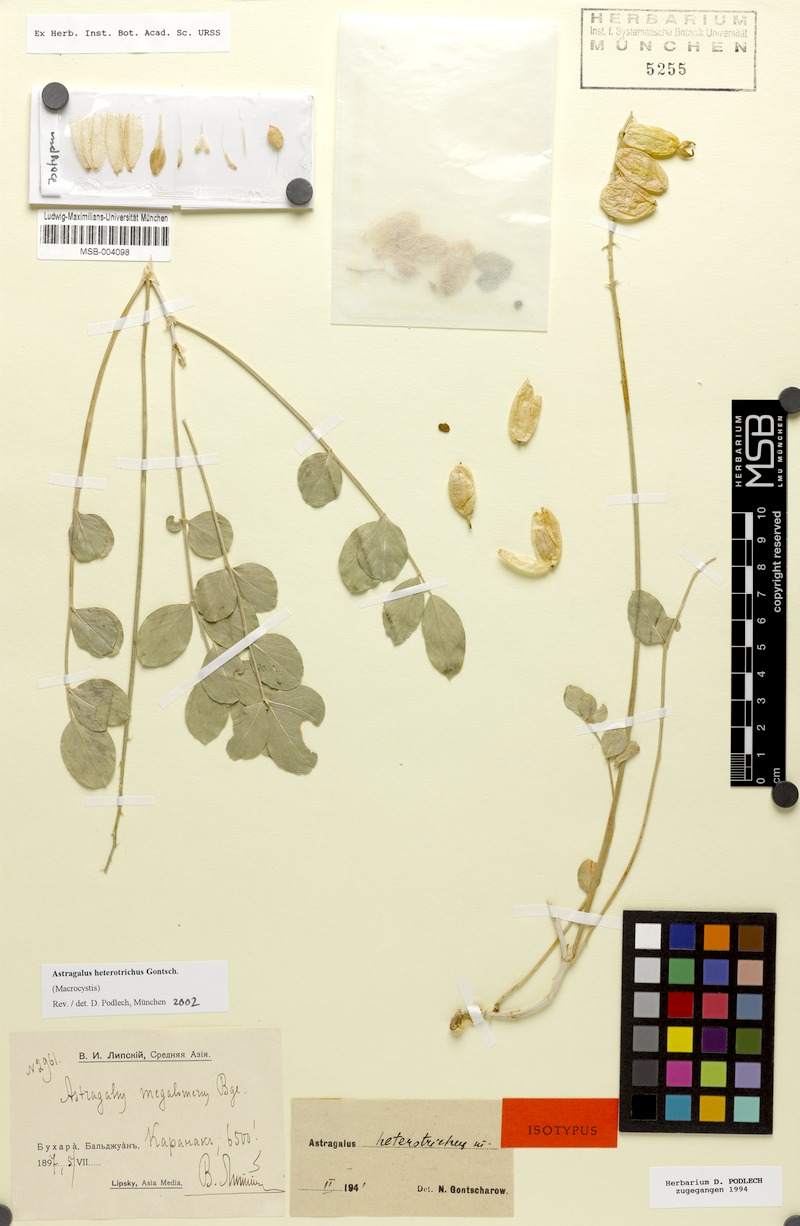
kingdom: Plantae
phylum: Tracheophyta
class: Magnoliopsida
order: Fabales
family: Fabaceae
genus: Astragalus
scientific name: Astragalus heterotrichus
